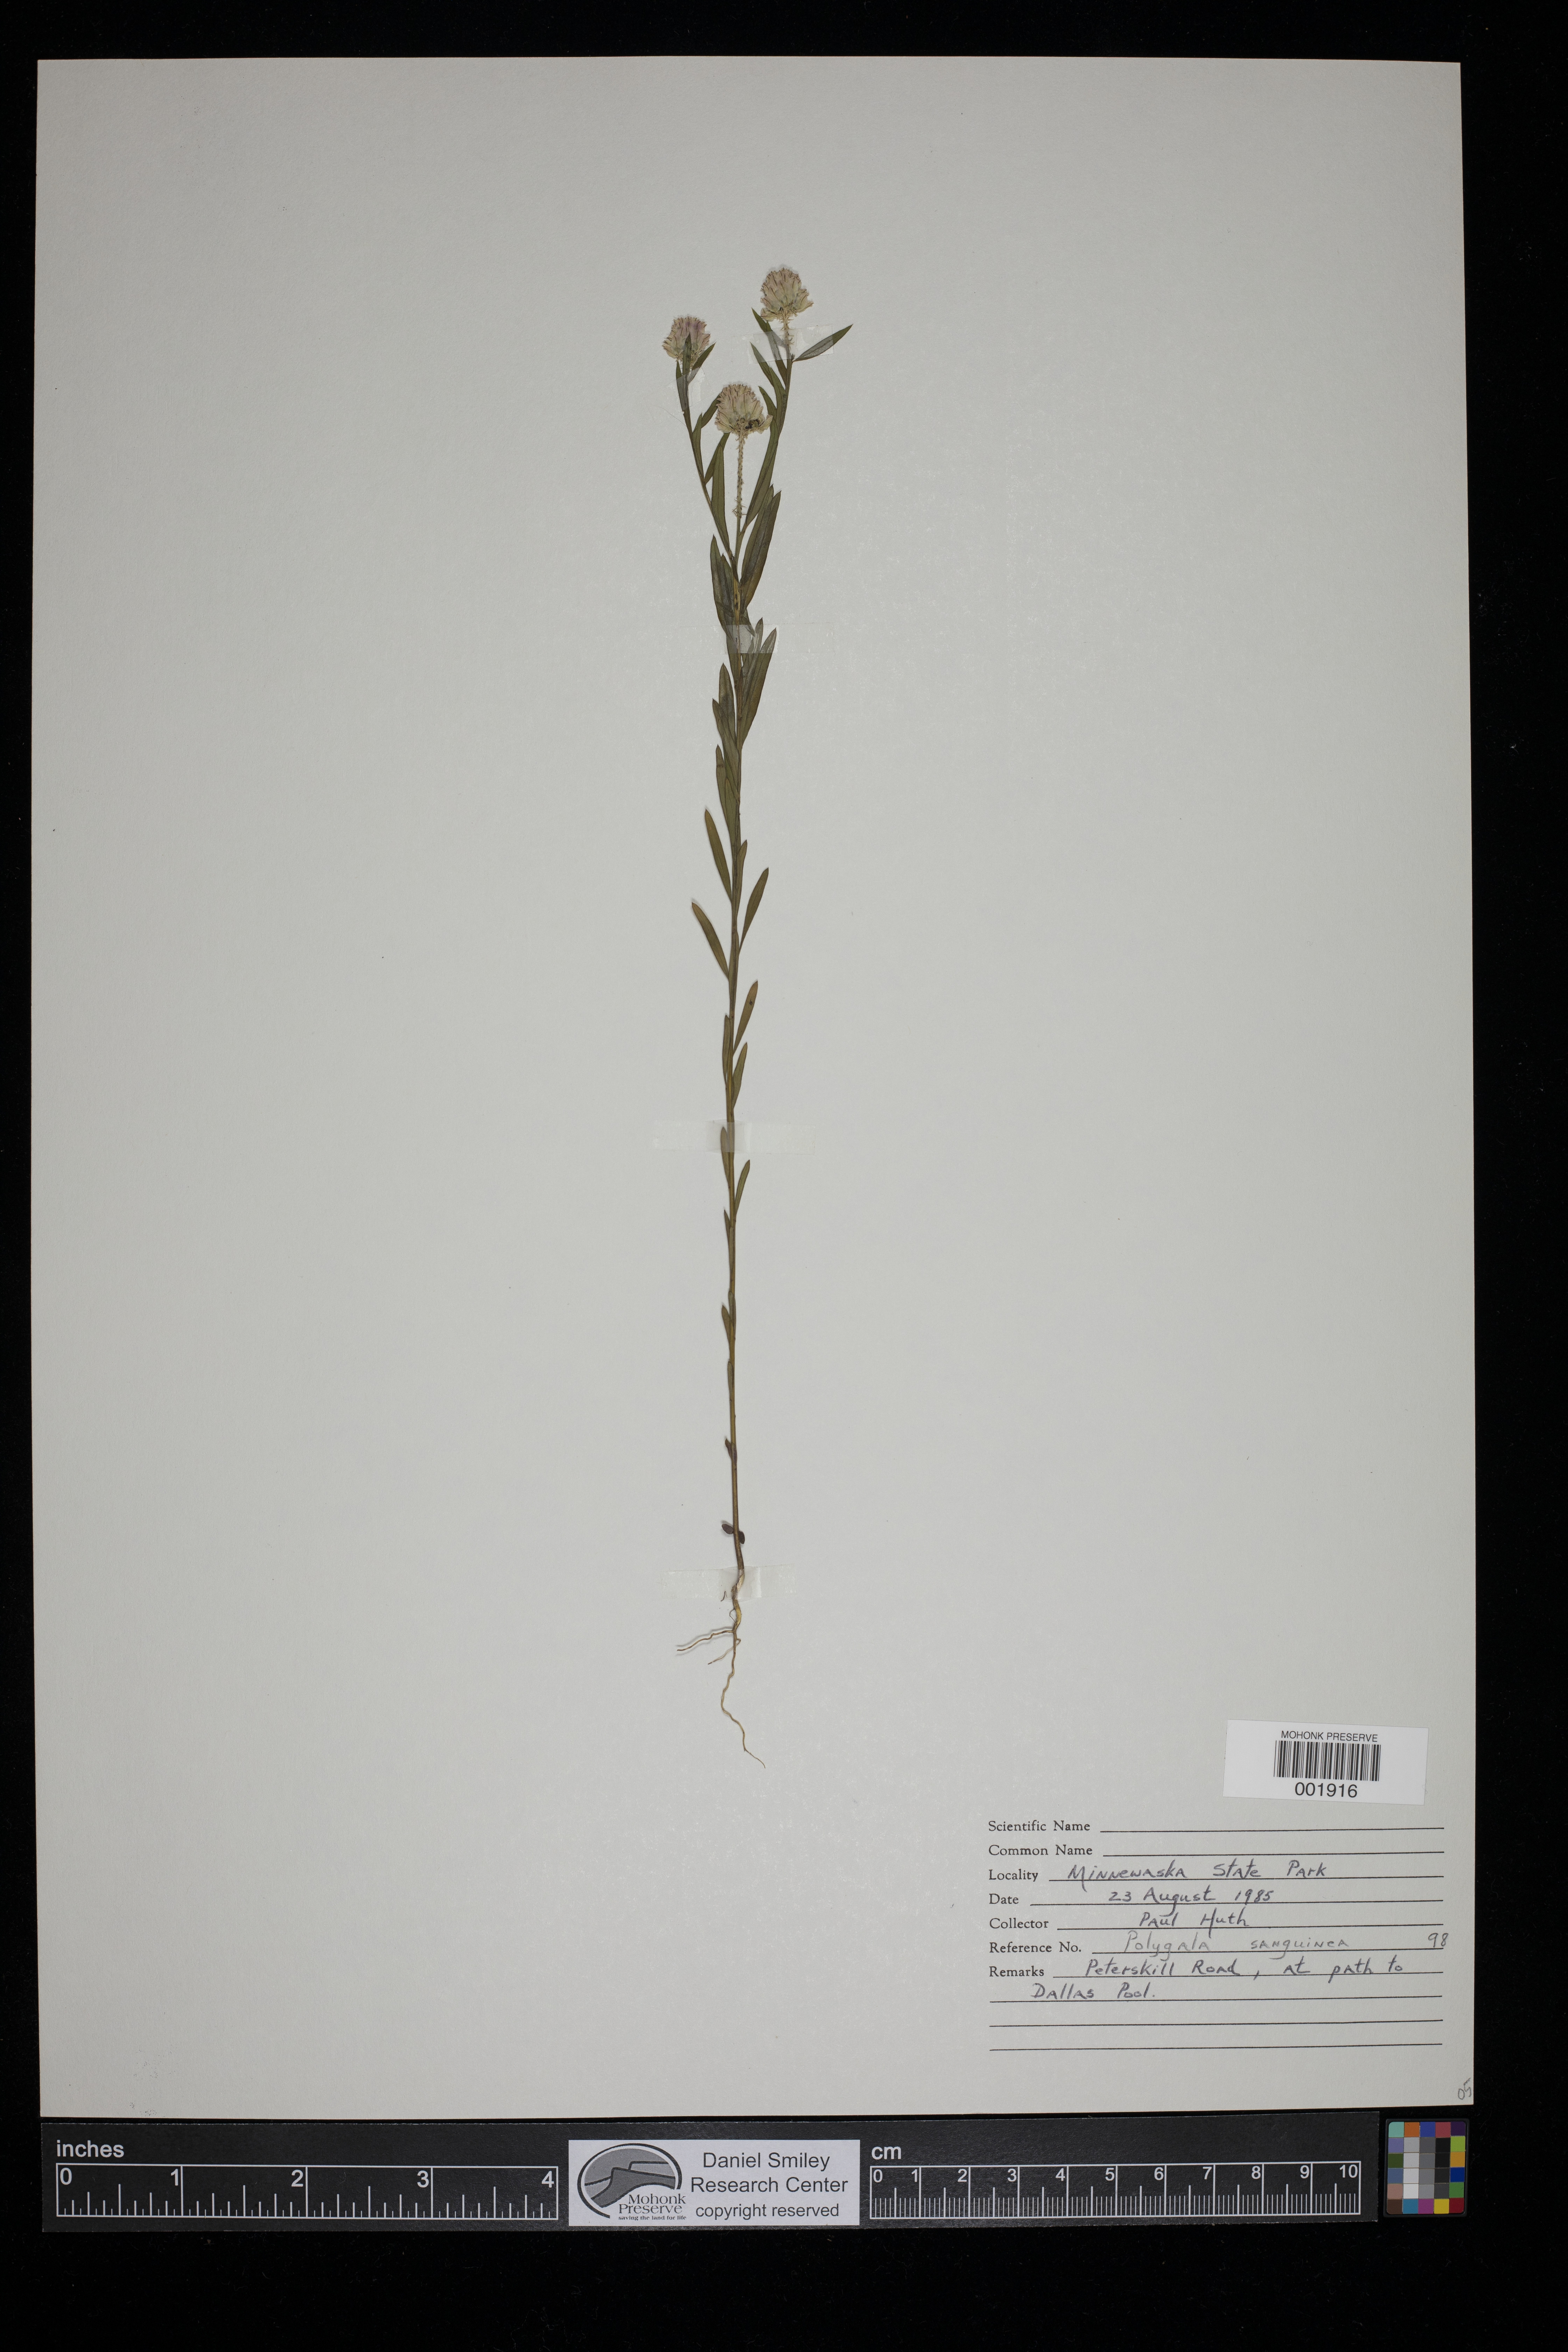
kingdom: Plantae
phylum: Tracheophyta
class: Magnoliopsida
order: Fabales
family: Polygalaceae
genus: Polygala
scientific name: Polygala sanguinea
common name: Blood milkwort
